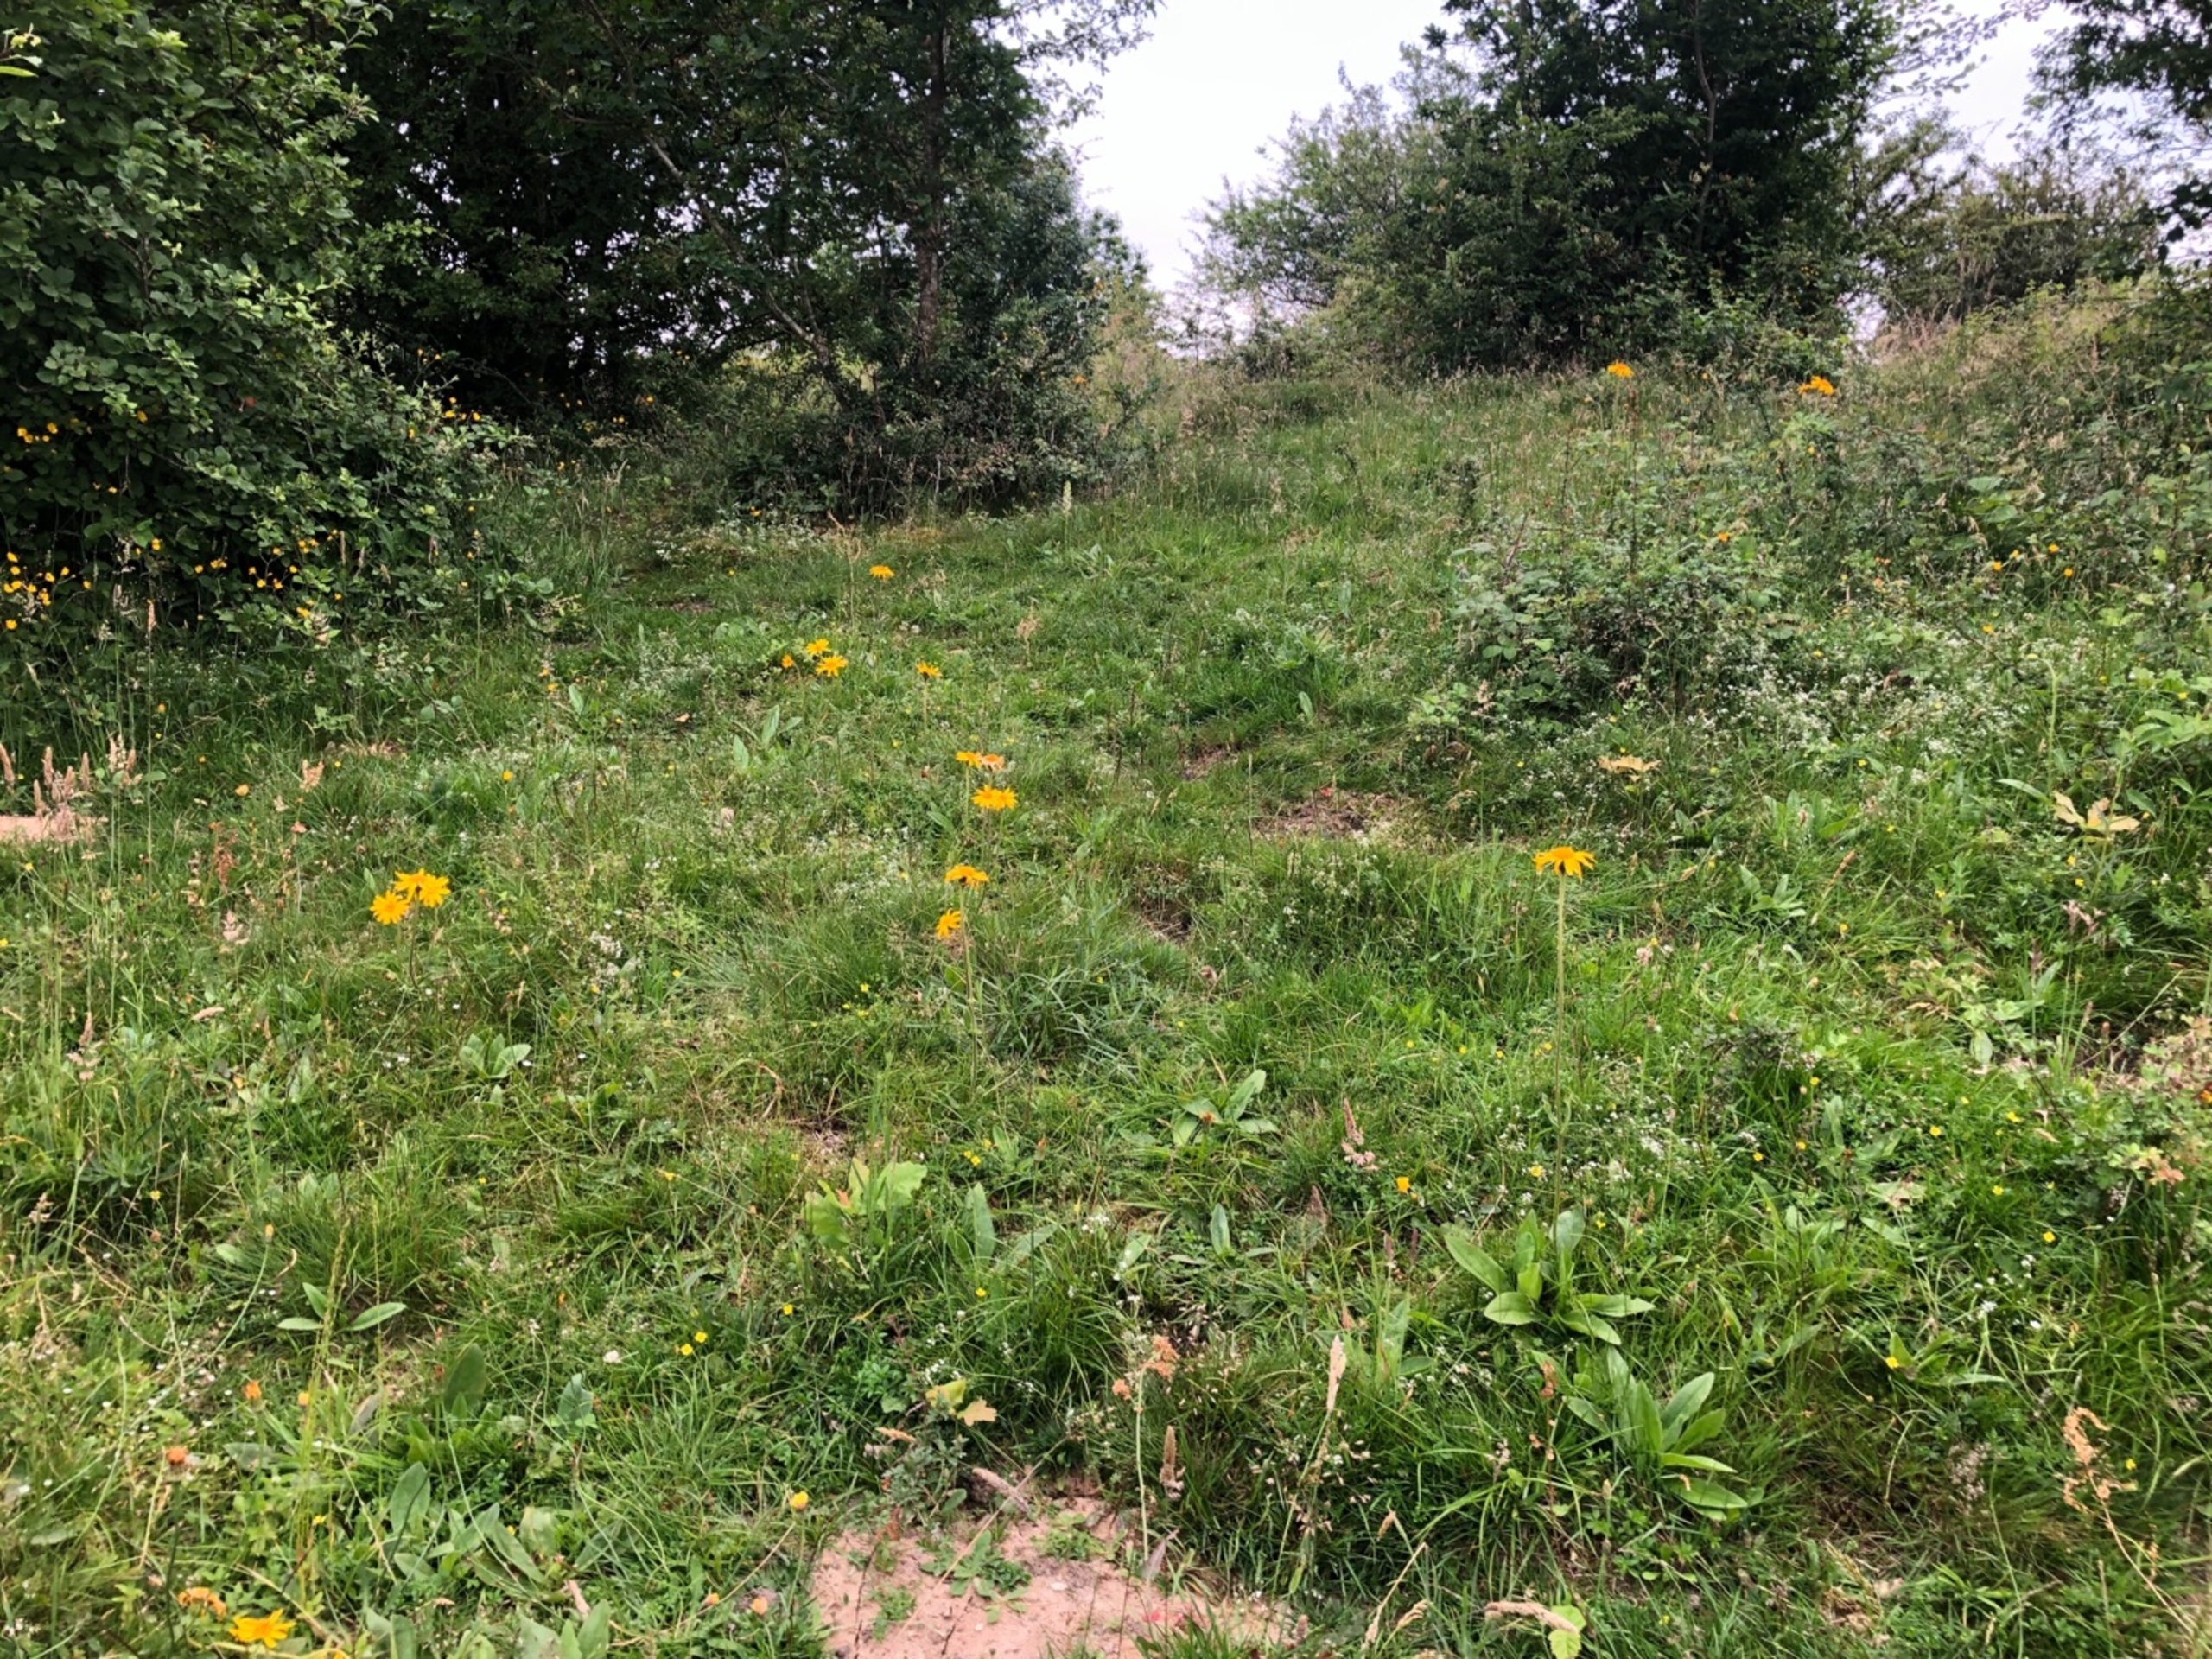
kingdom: Plantae
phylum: Tracheophyta
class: Magnoliopsida
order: Asterales
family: Asteraceae
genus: Arnica
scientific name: Arnica montana
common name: Guldblomme
